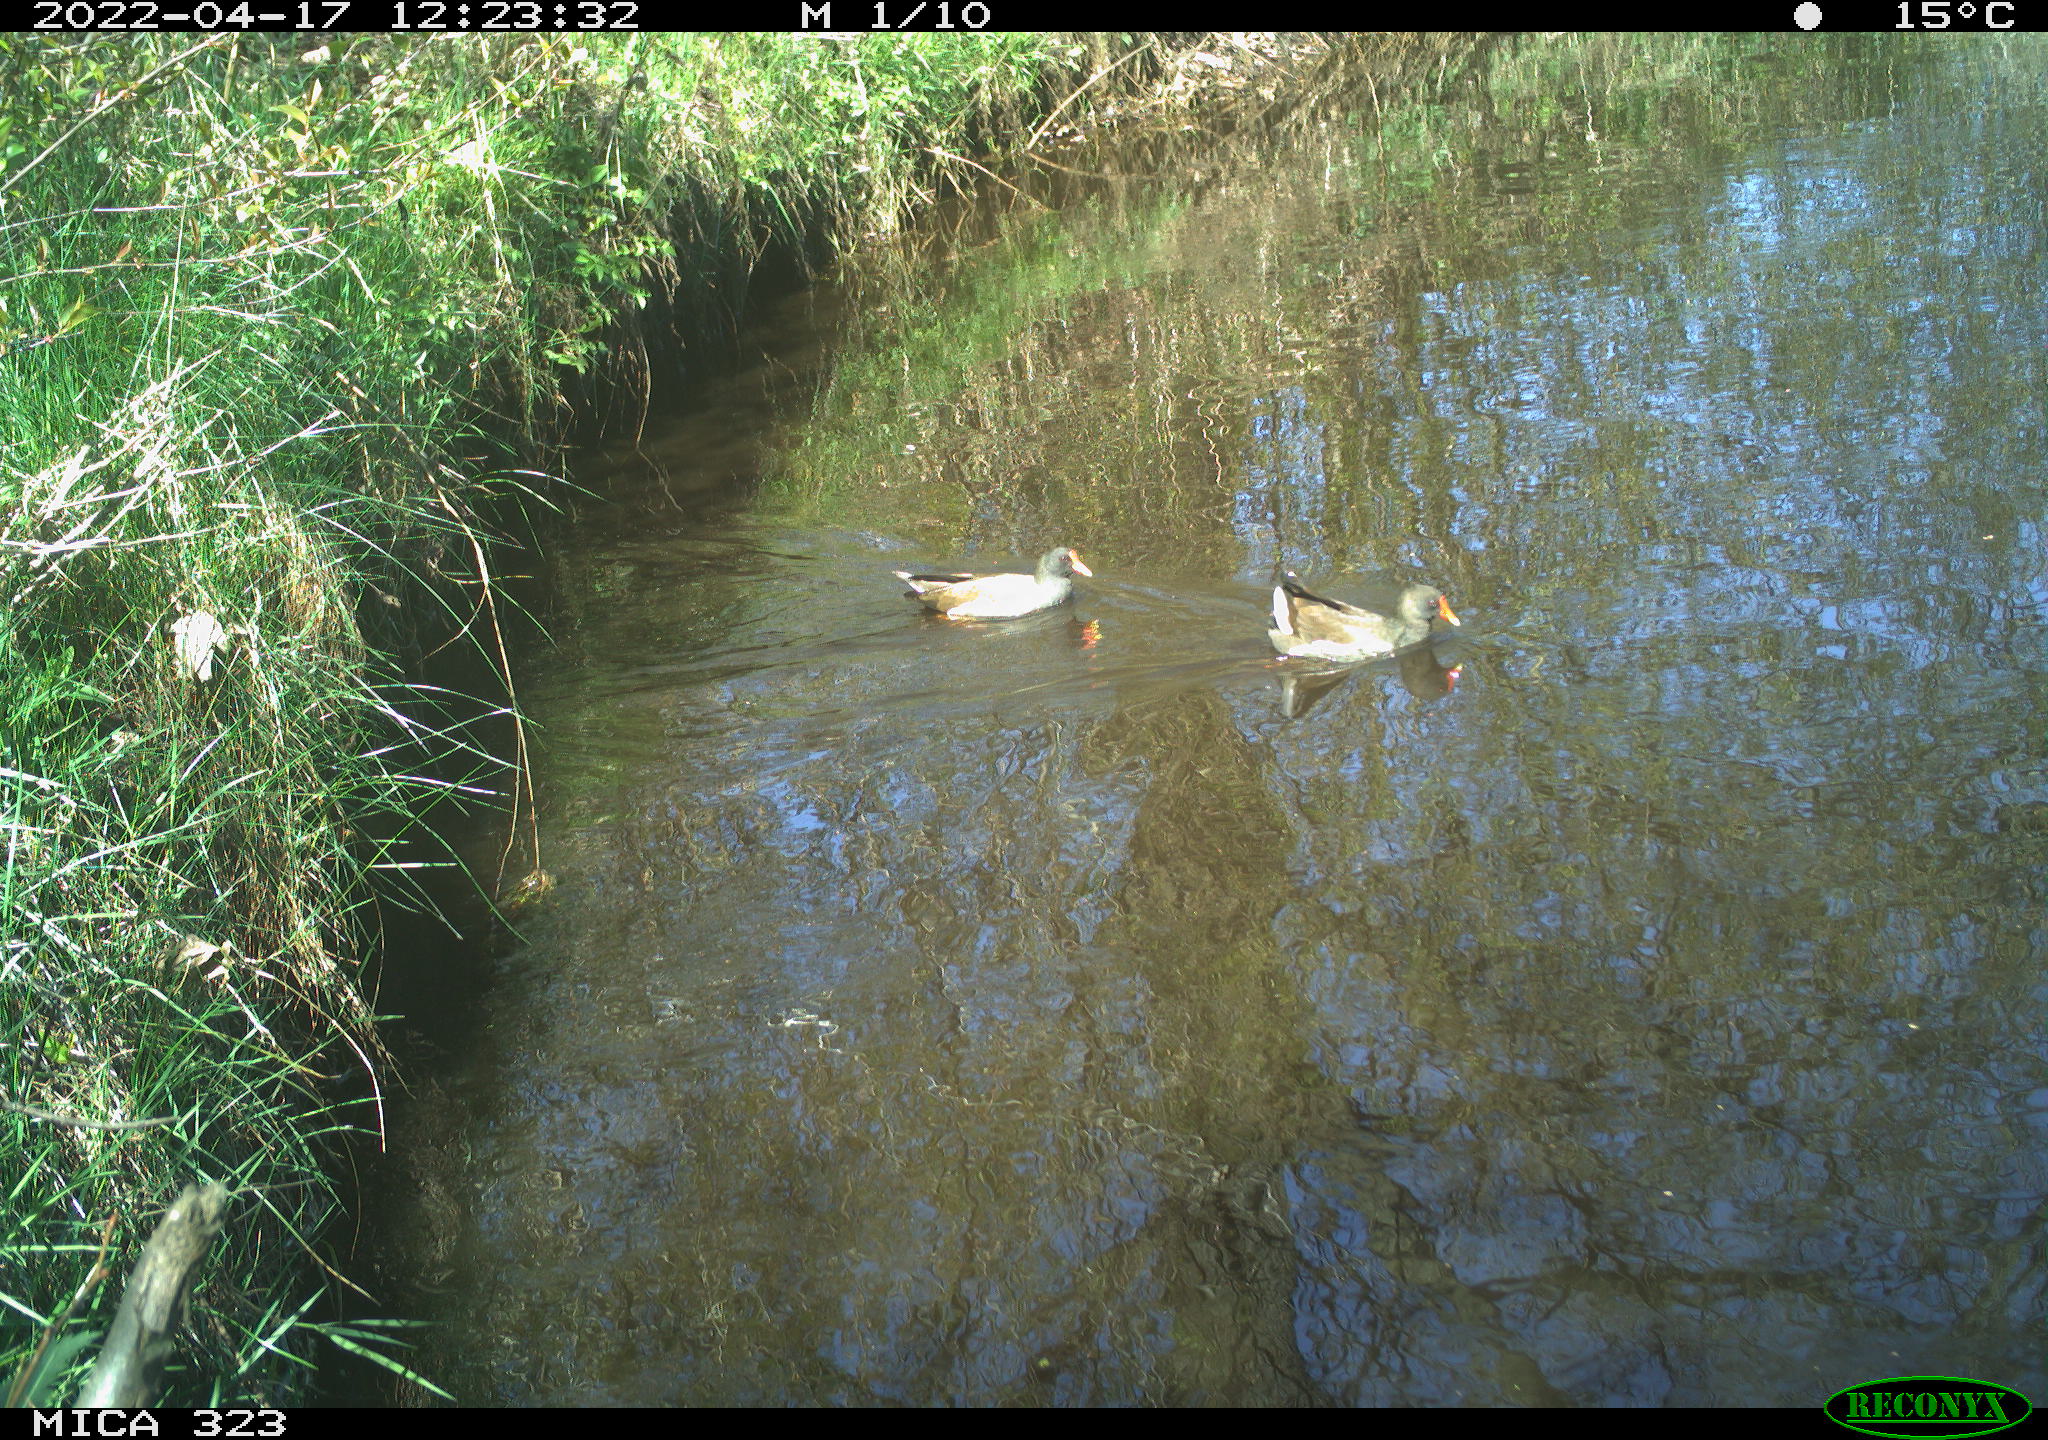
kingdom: Animalia
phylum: Chordata
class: Aves
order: Gruiformes
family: Rallidae
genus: Gallinula
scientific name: Gallinula chloropus
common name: Common moorhen
